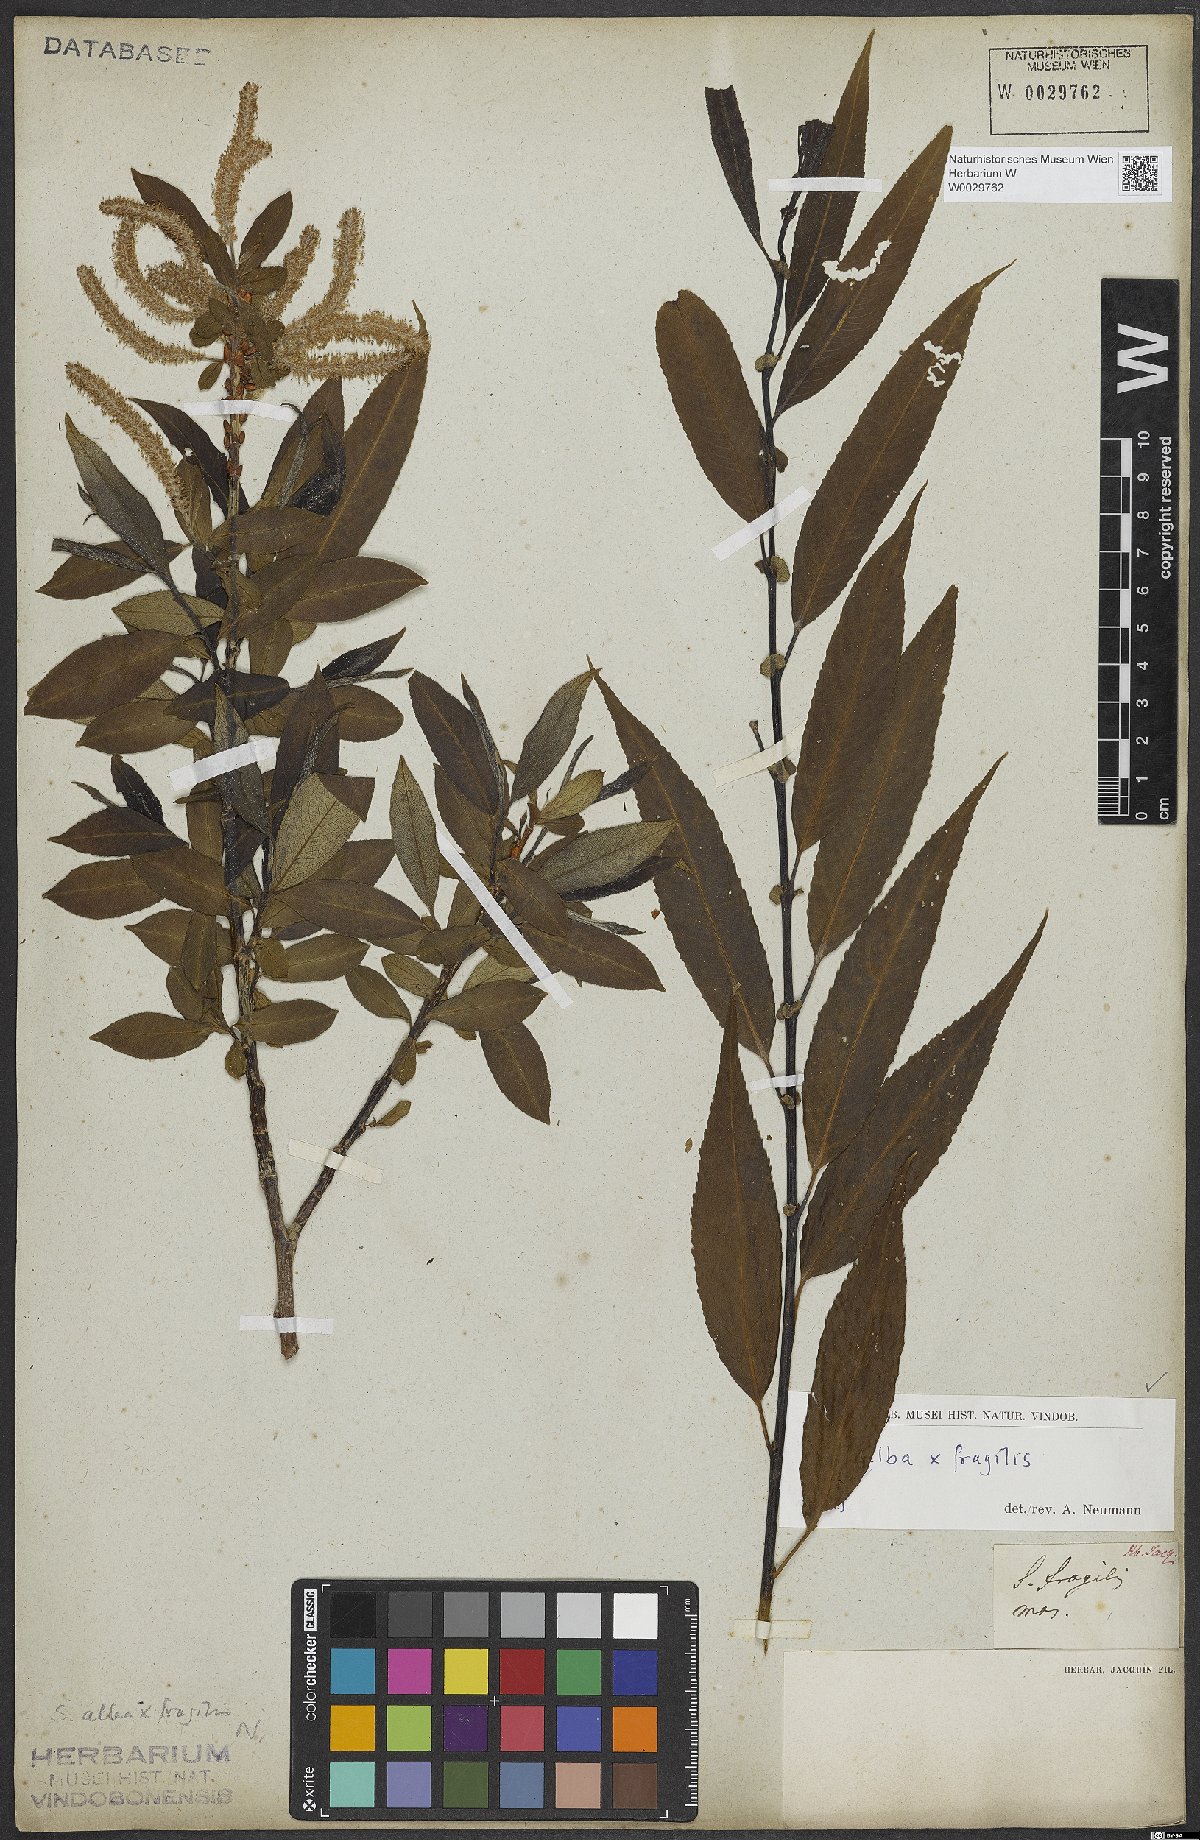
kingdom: Plantae
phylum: Tracheophyta
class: Magnoliopsida
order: Malpighiales
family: Salicaceae
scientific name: Salicaceae
